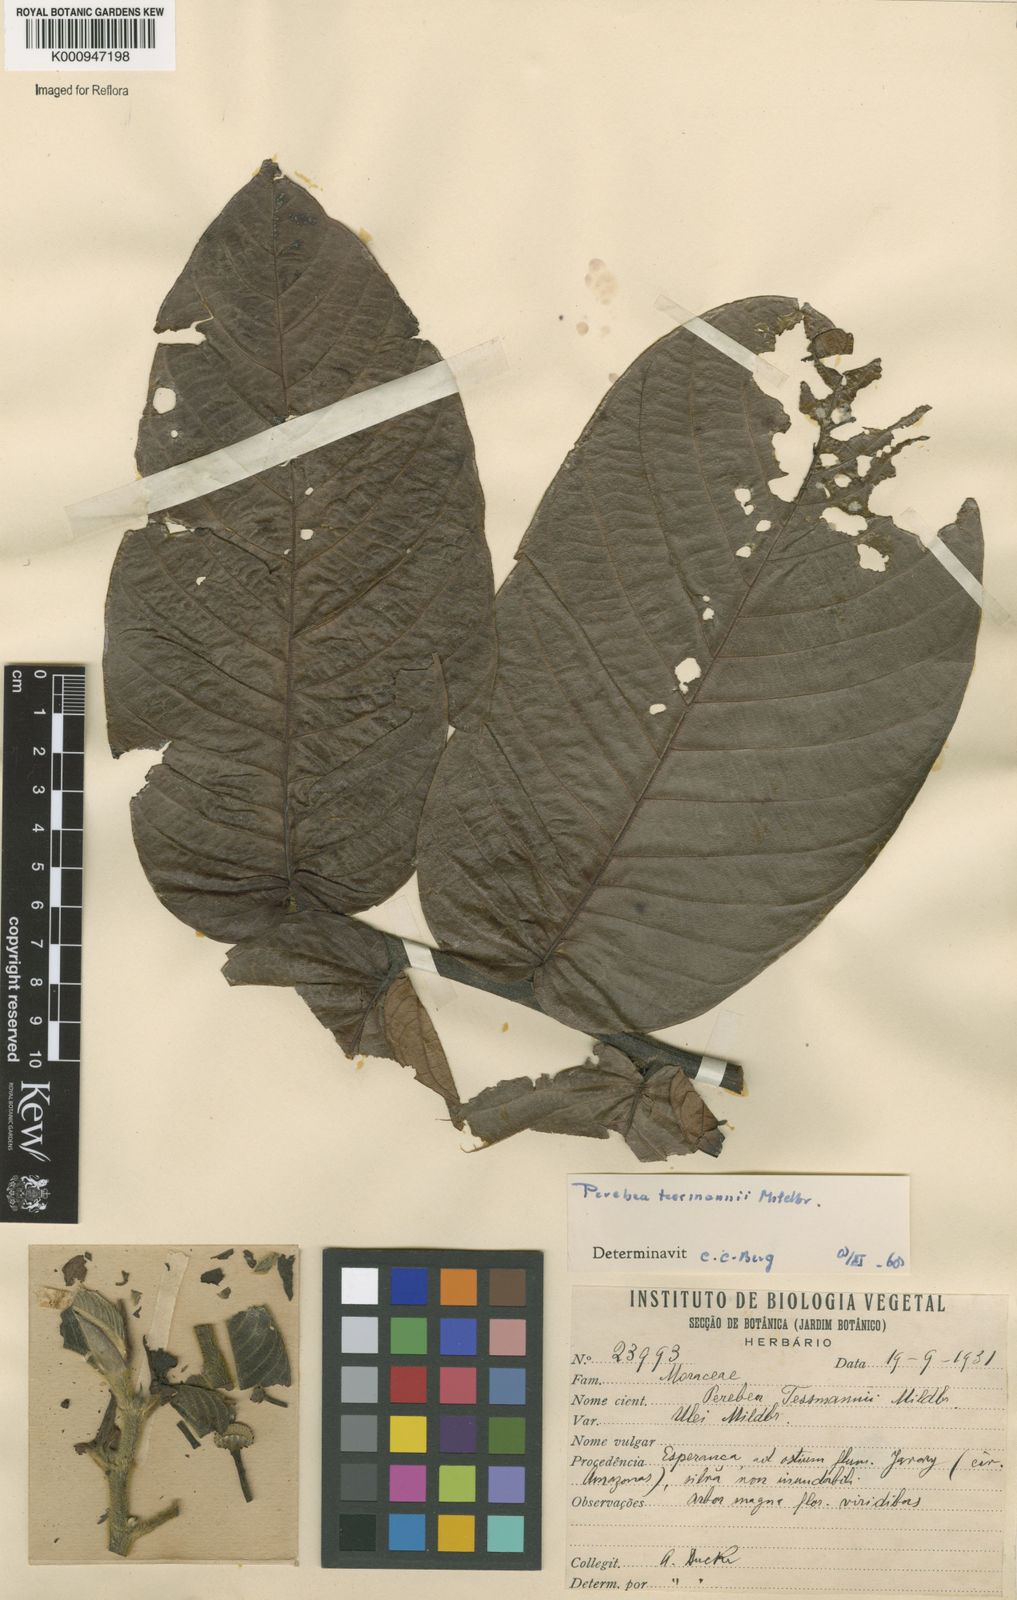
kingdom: Plantae
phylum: Tracheophyta
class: Magnoliopsida
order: Rosales
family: Moraceae
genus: Perebea
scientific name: Perebea tessmannii
